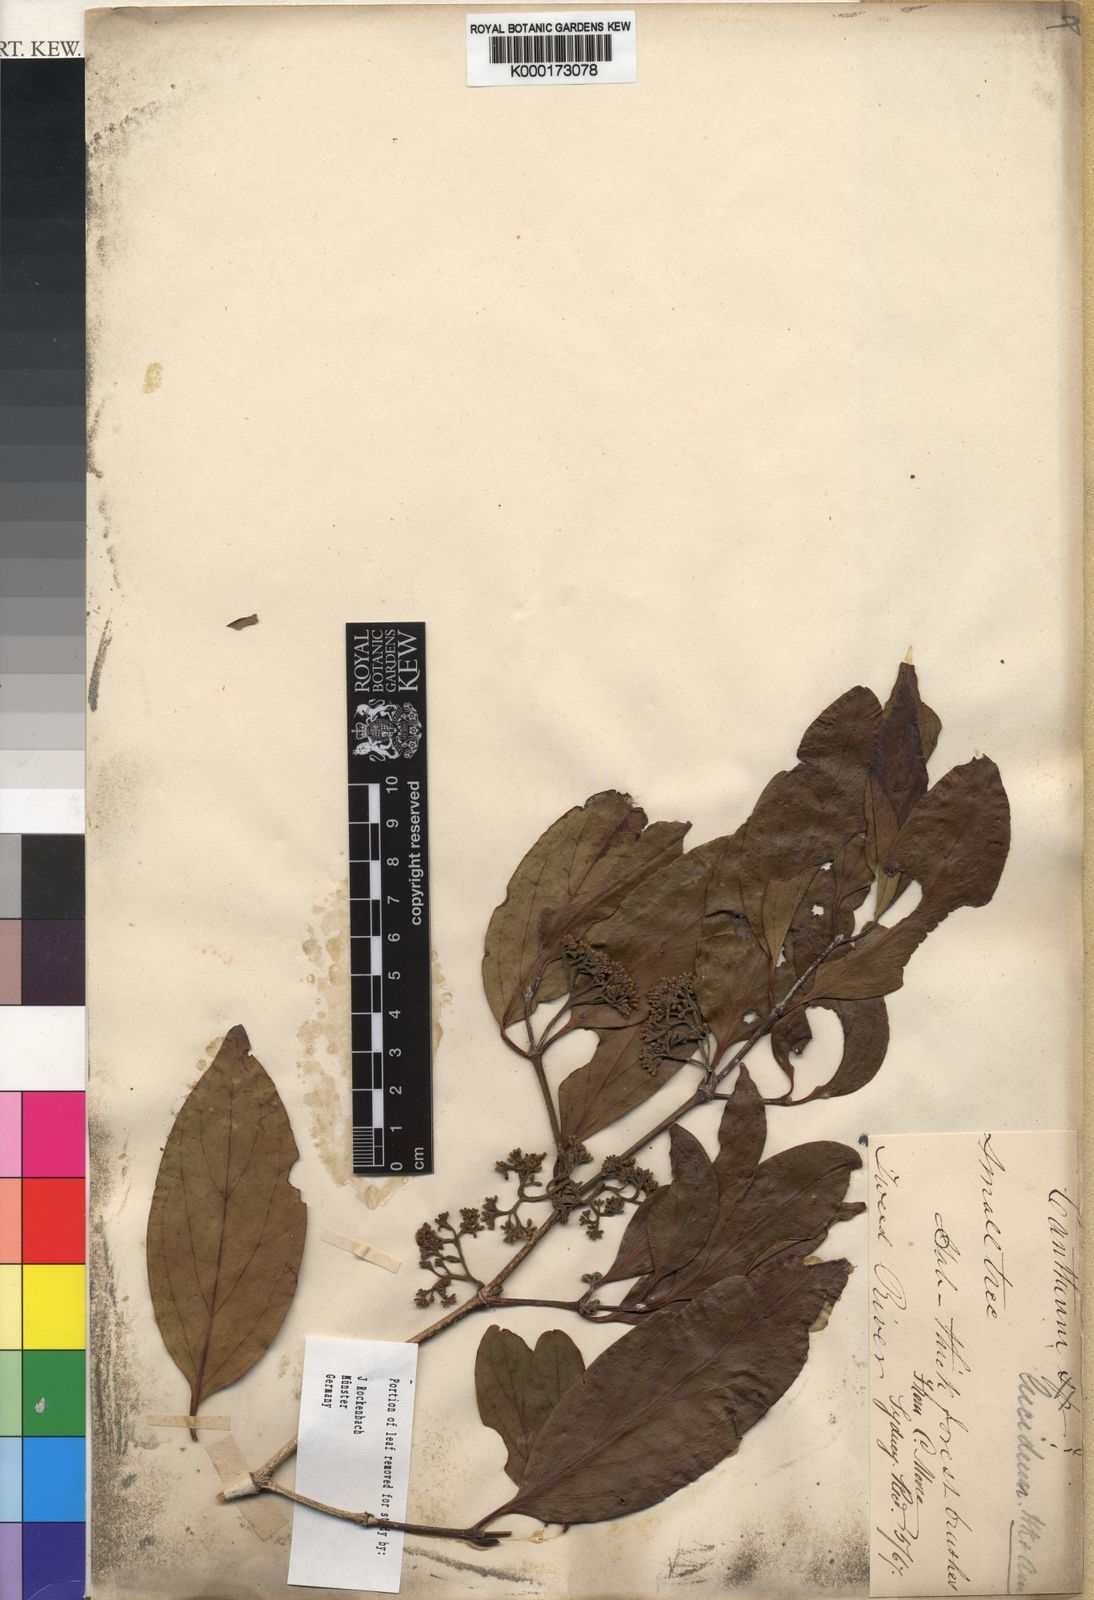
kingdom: Plantae
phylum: Tracheophyta
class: Magnoliopsida
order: Gentianales
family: Rubiaceae
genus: Psydrax
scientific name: Psydrax lamprophyllus
